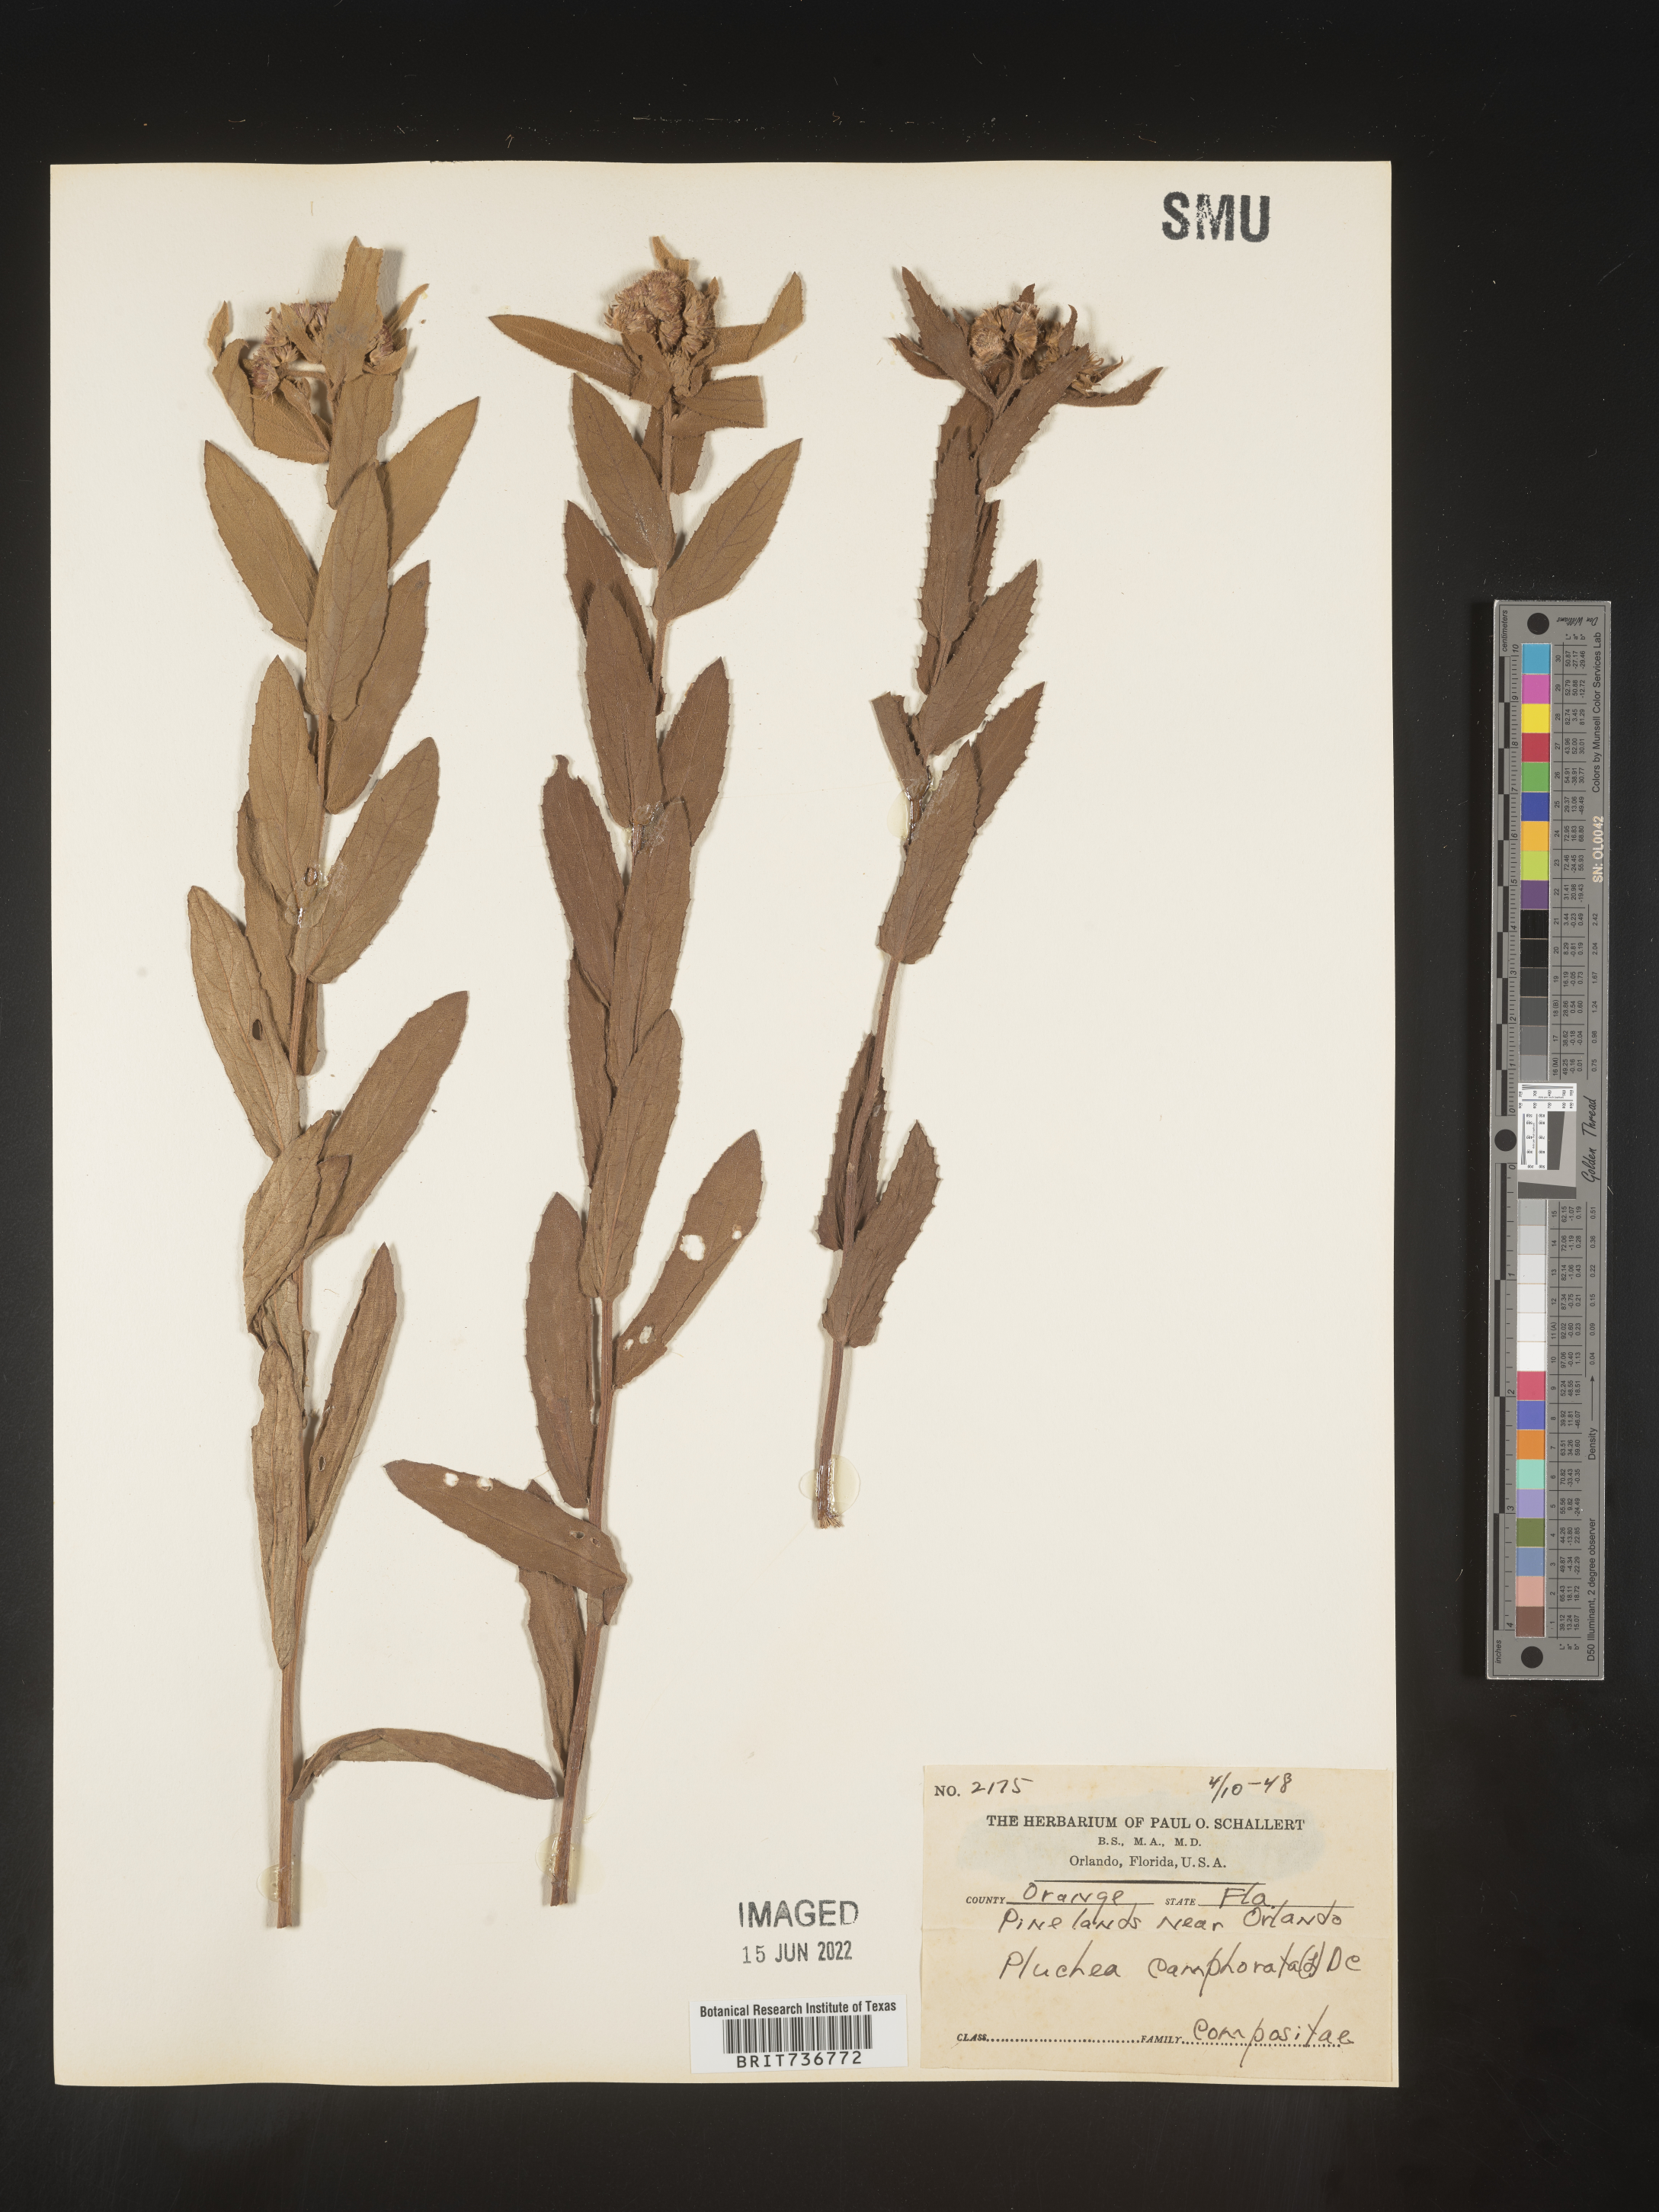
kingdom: Plantae
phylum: Tracheophyta
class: Magnoliopsida
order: Asterales
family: Asteraceae
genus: Pluchea
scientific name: Pluchea baccharis
